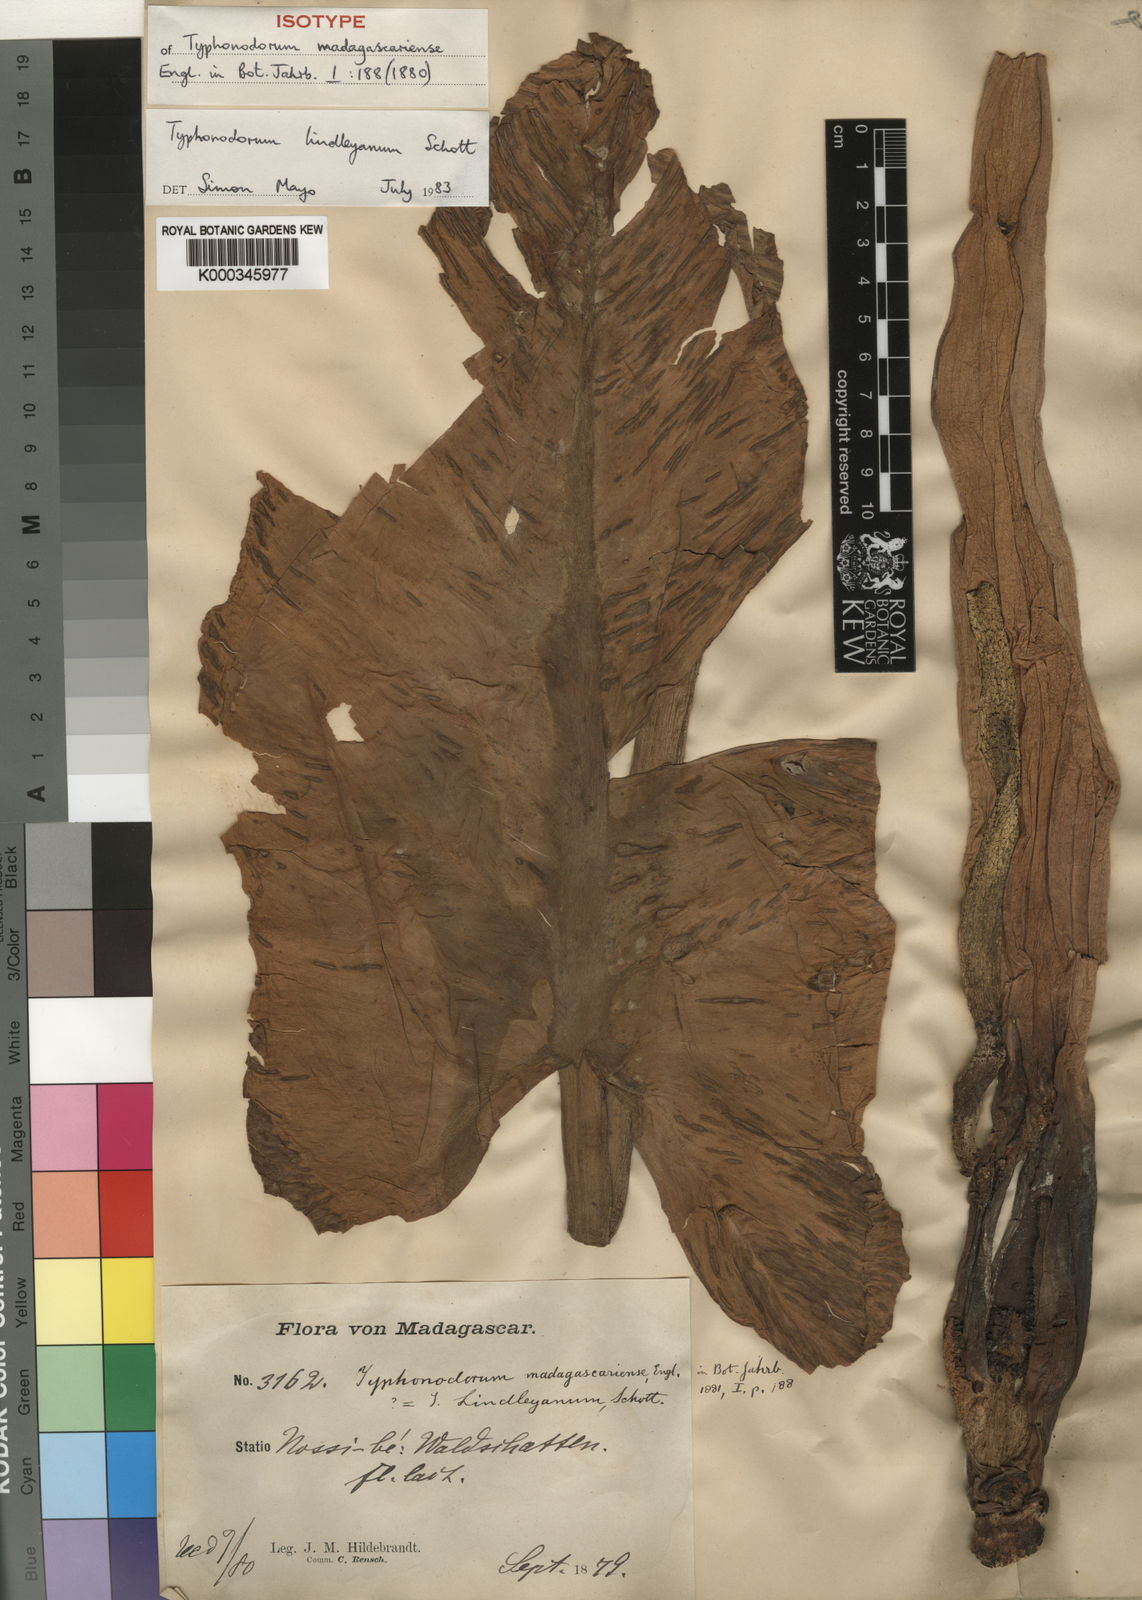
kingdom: Plantae
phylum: Tracheophyta
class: Liliopsida
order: Alismatales
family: Araceae
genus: Typhonodorum
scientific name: Typhonodorum lindleyanum
